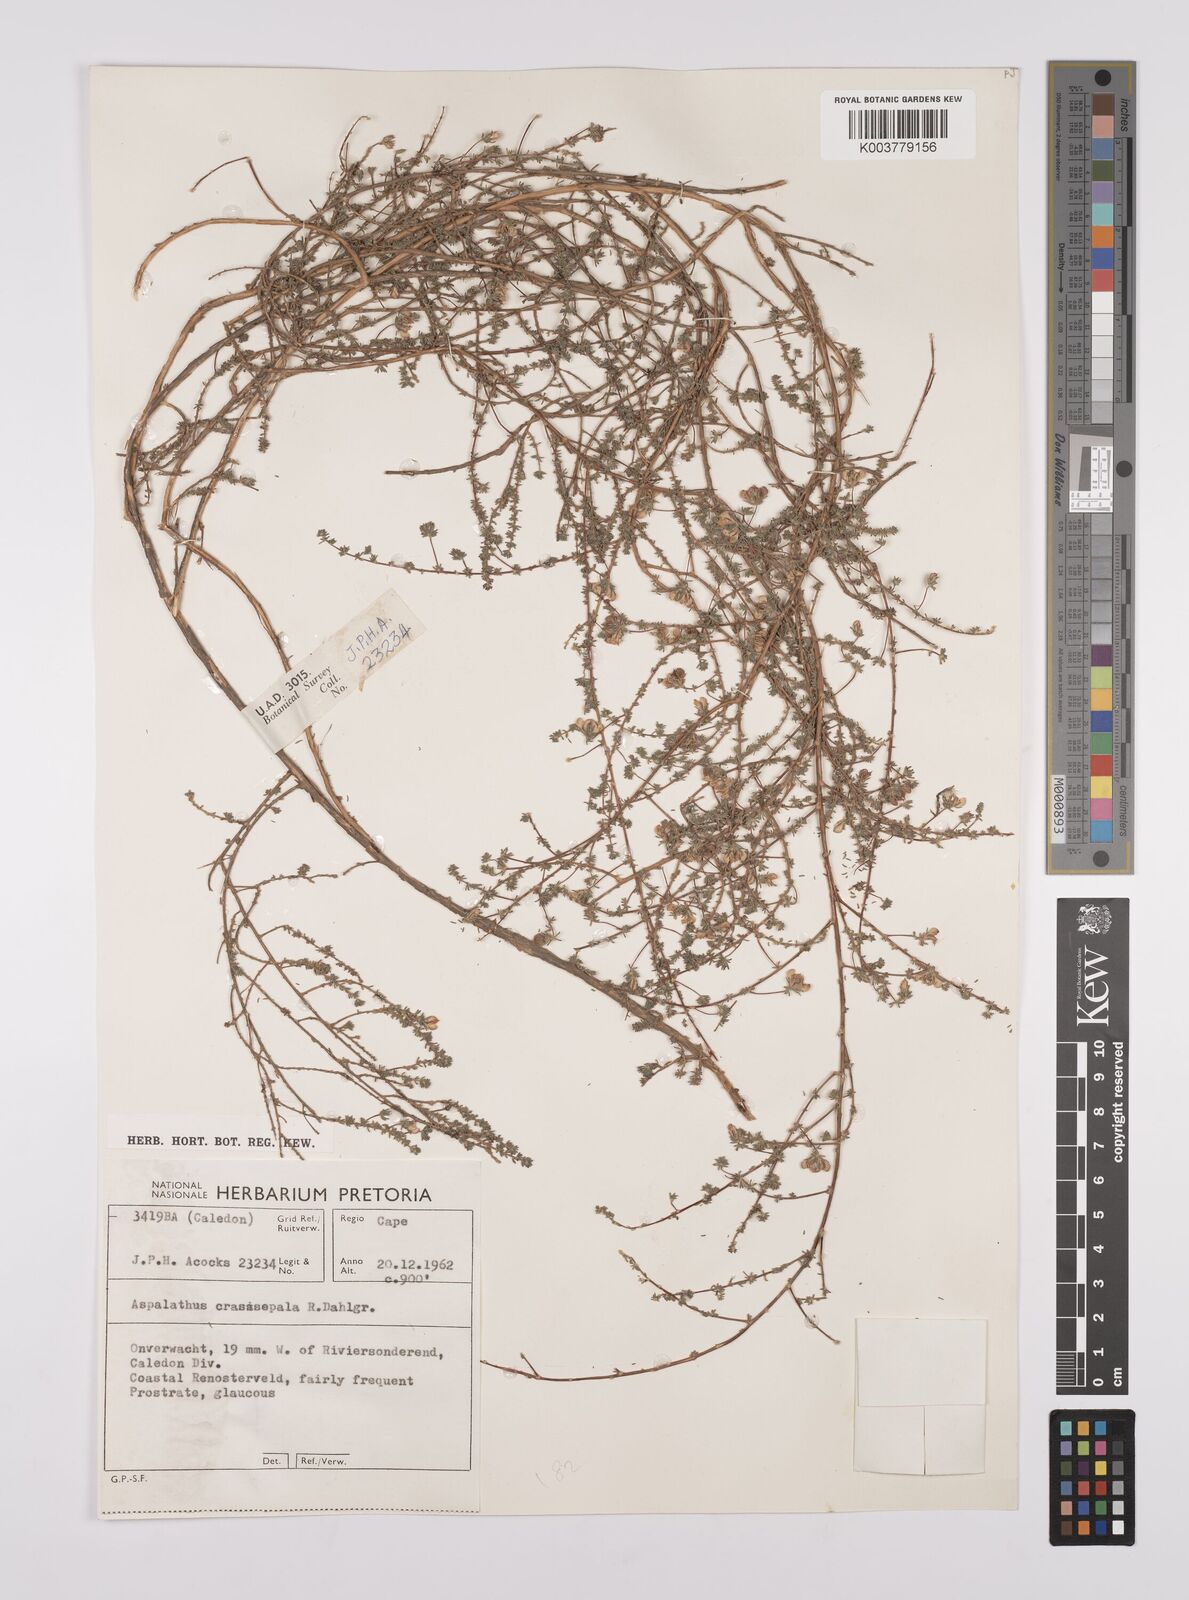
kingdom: Plantae
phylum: Tracheophyta
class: Magnoliopsida
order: Fabales
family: Fabaceae
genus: Aspalathus
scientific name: Aspalathus crassisepala
